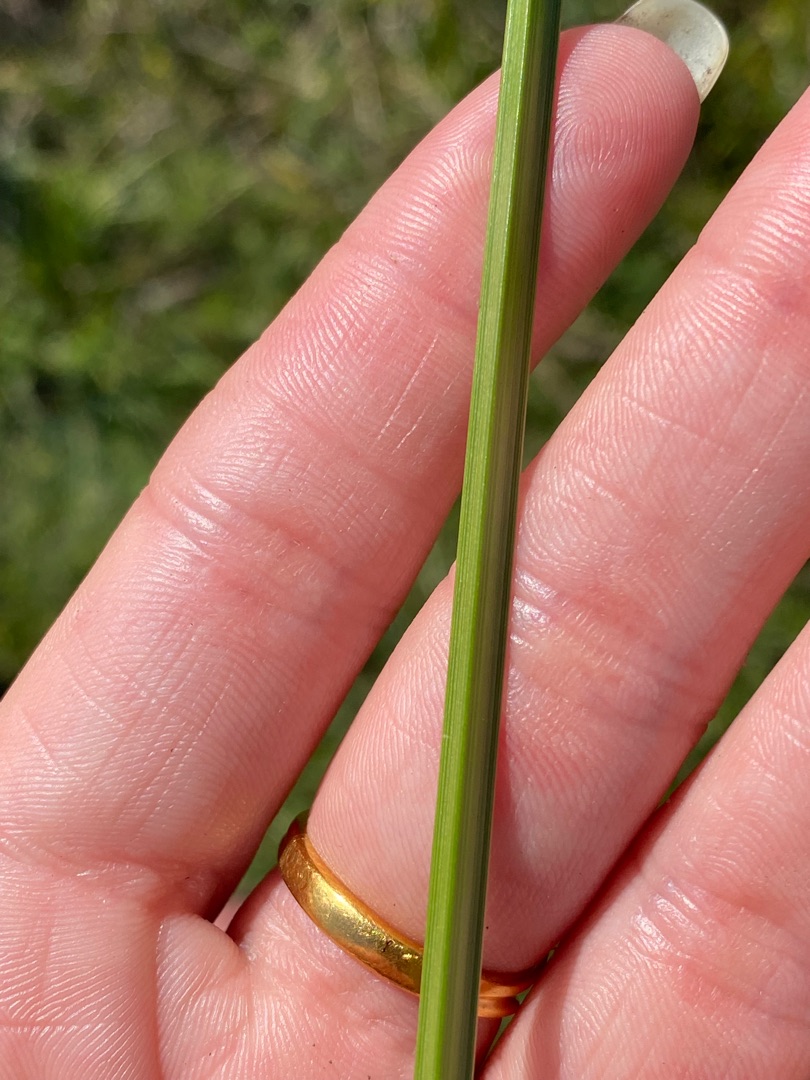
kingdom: Plantae
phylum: Tracheophyta
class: Liliopsida
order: Poales
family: Cyperaceae
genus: Carex
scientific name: Carex otrubae
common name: Sylt-star
